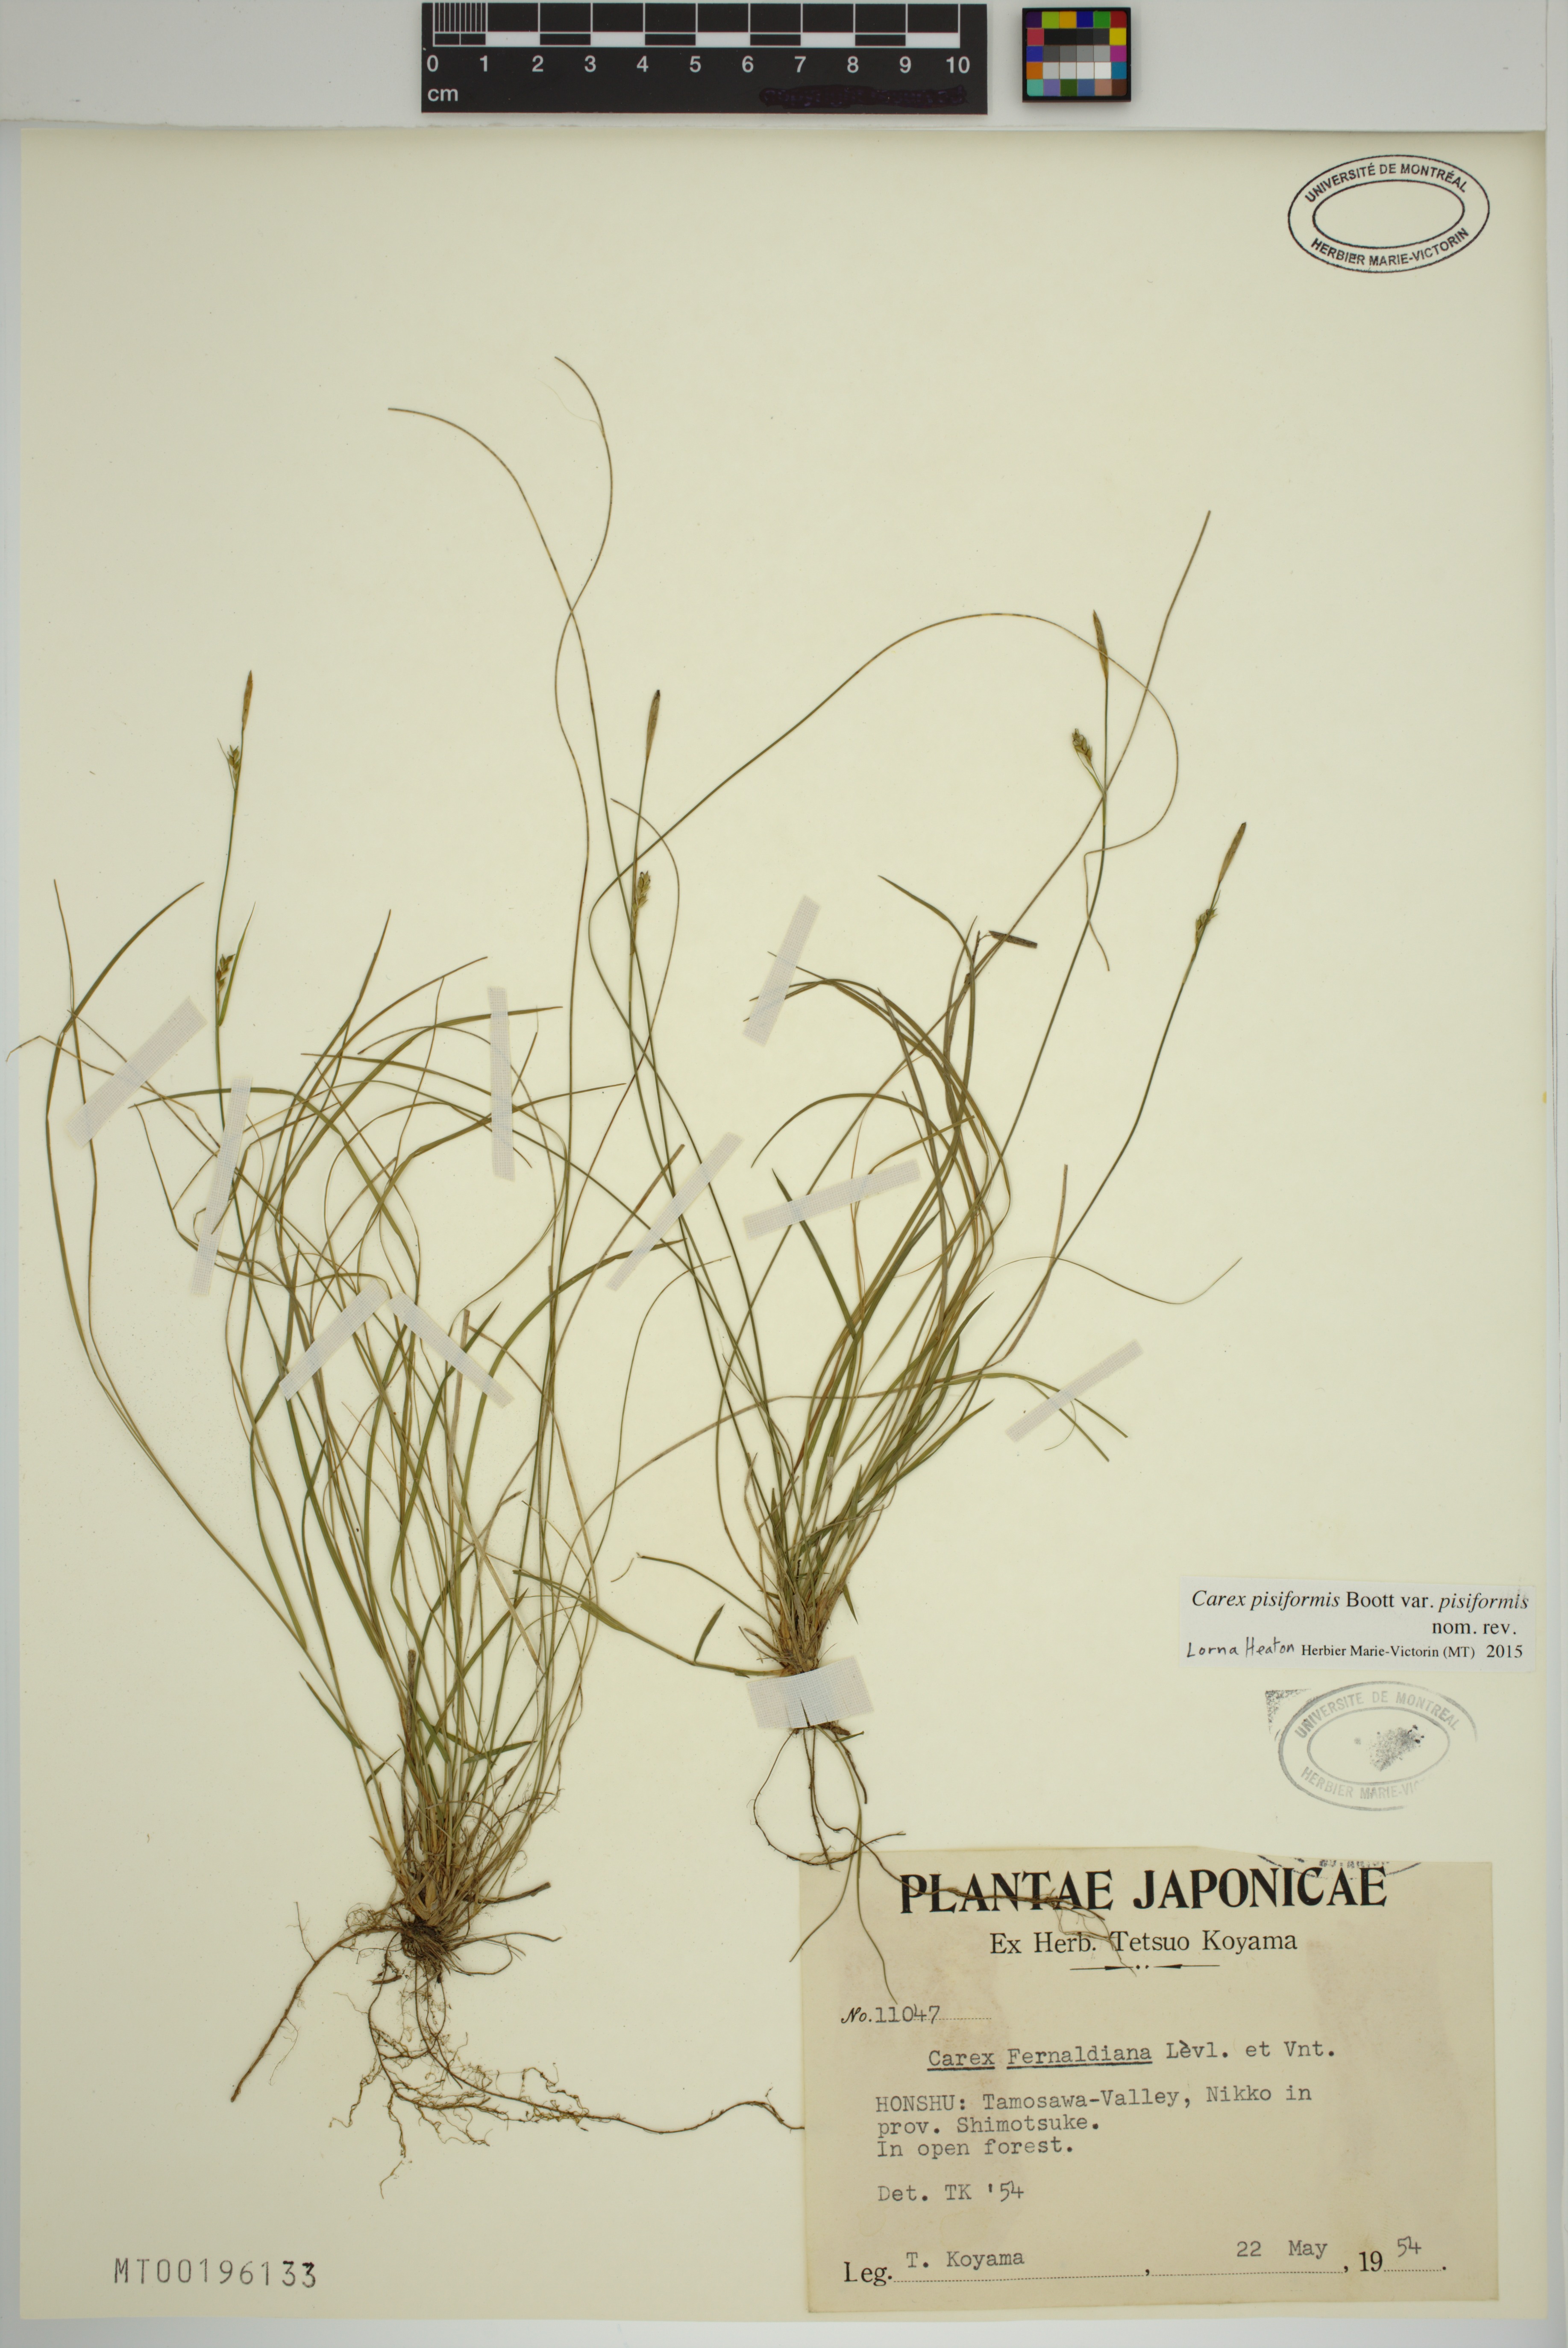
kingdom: Plantae
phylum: Tracheophyta
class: Liliopsida
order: Poales
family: Cyperaceae
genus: Carex
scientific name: Carex pisiformis
